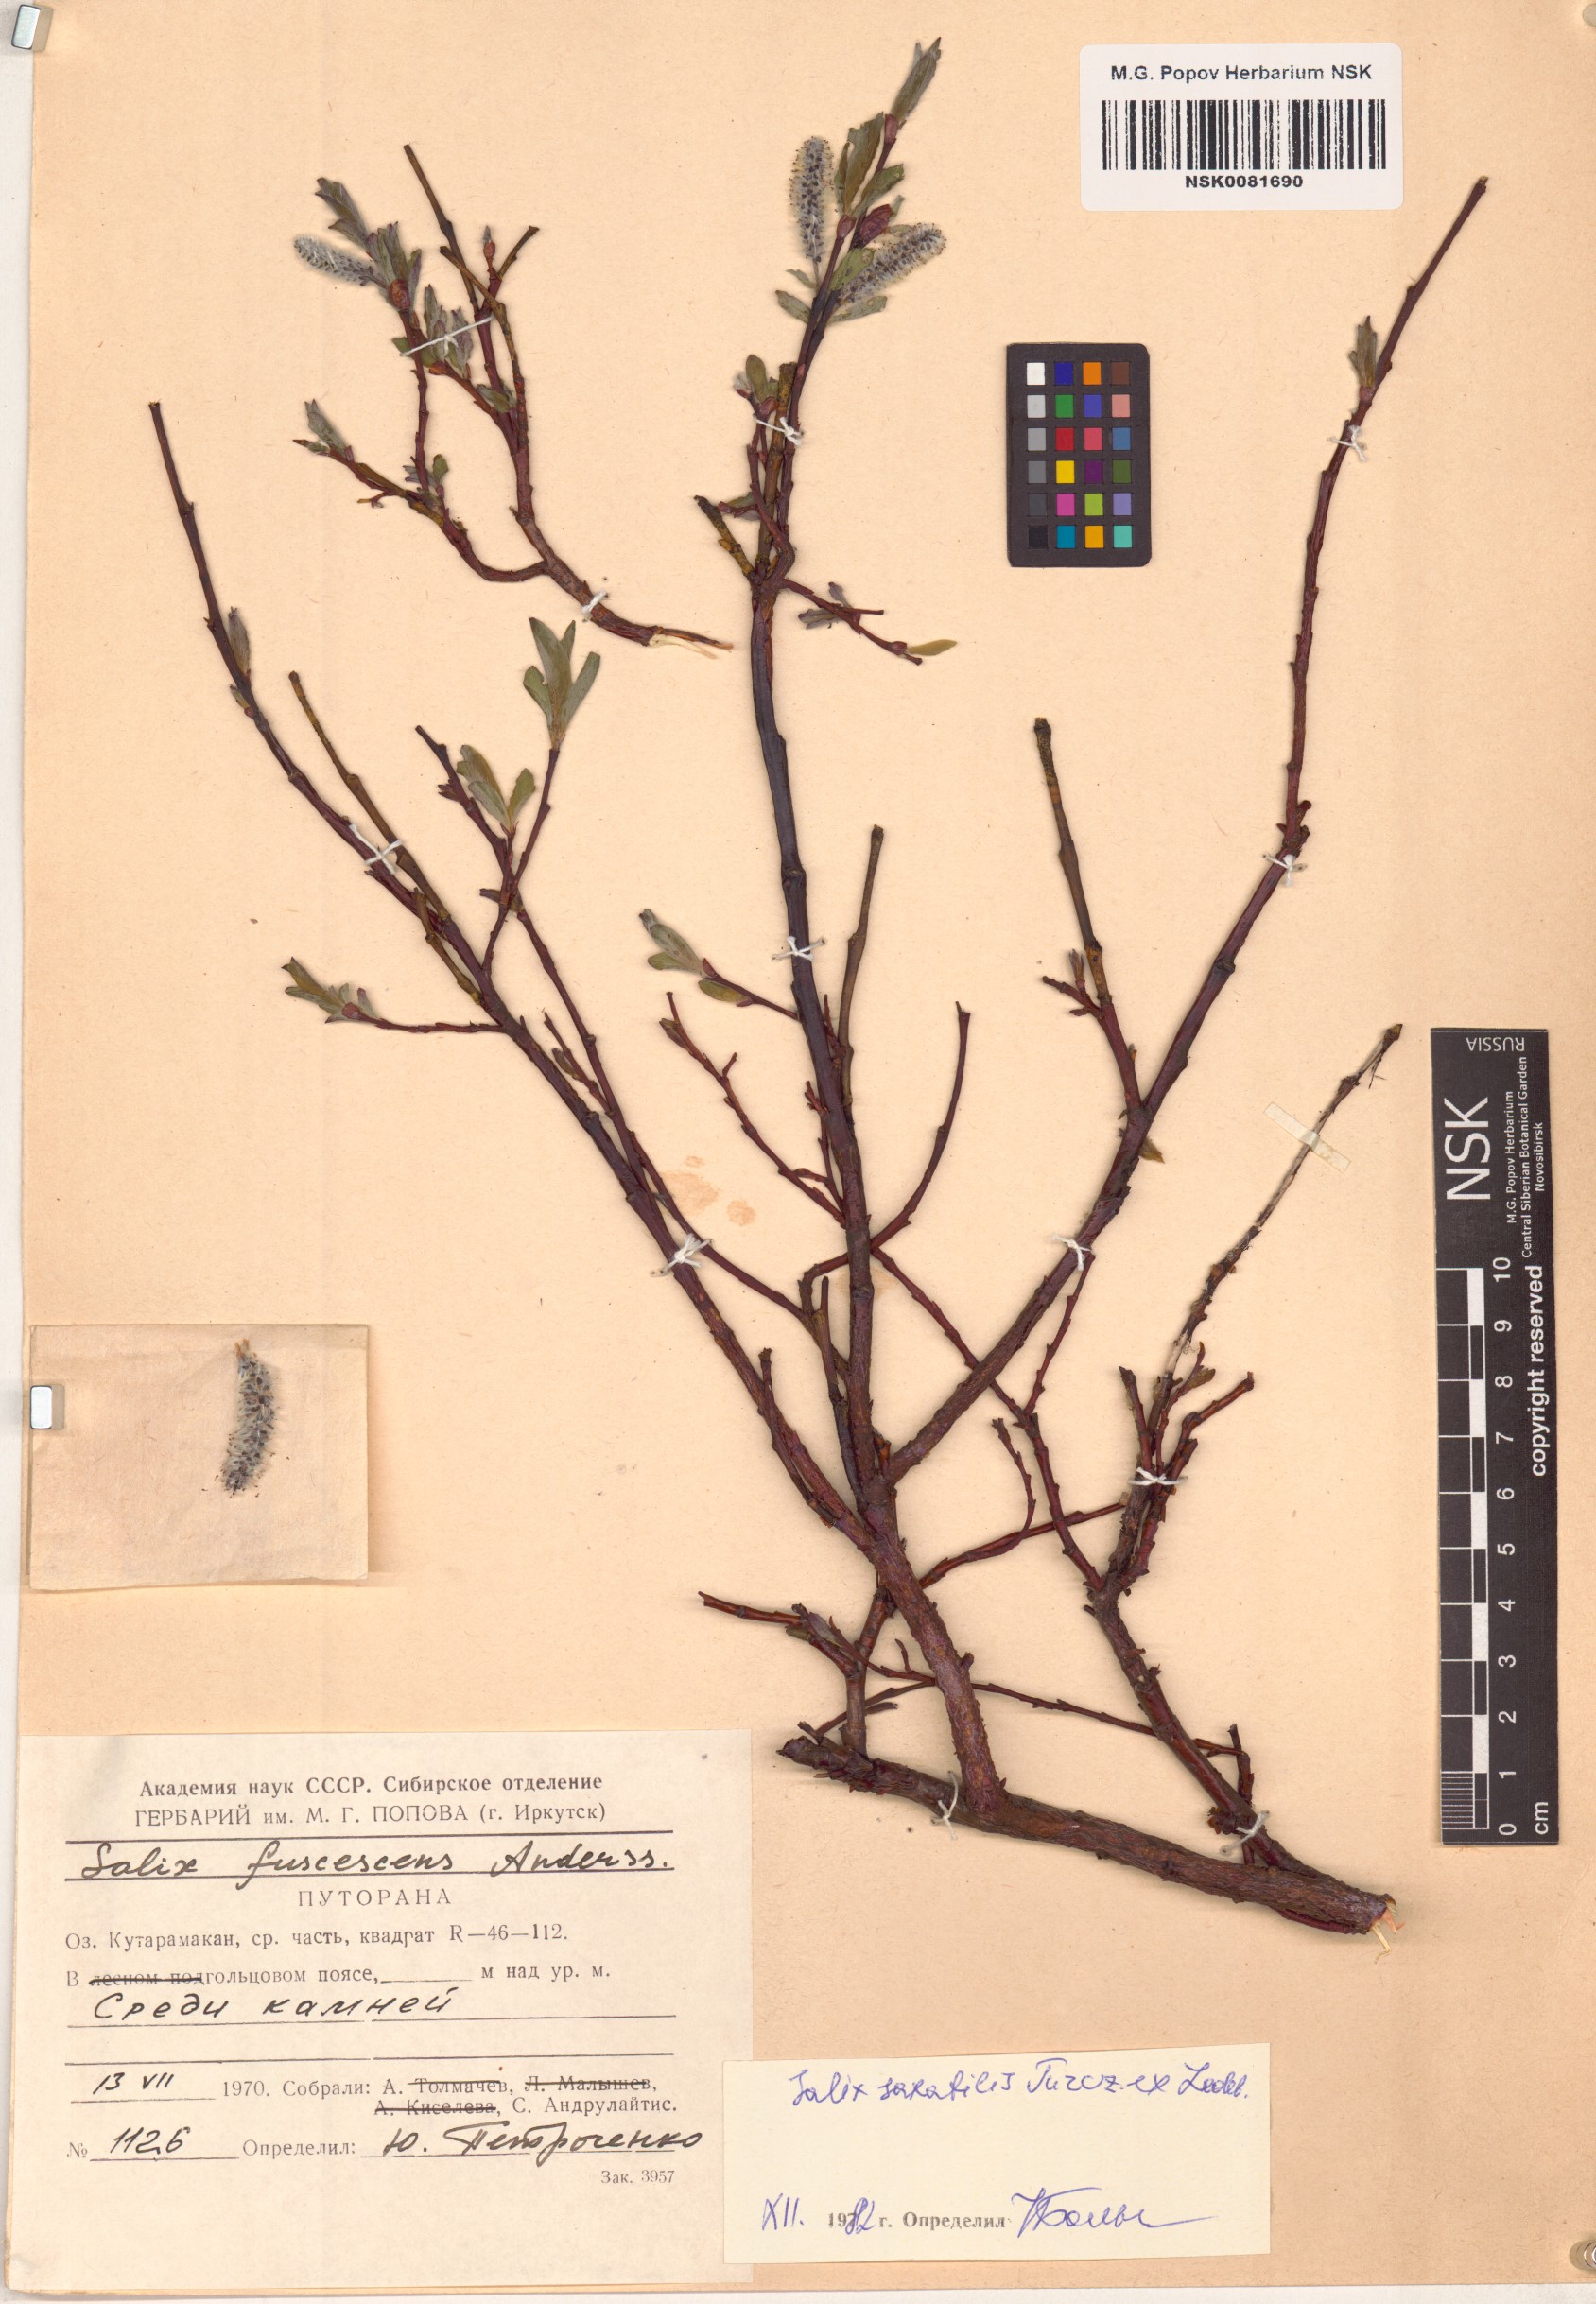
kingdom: Plantae
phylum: Tracheophyta
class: Magnoliopsida
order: Malpighiales
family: Salicaceae
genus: Salix
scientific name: Salix saxatilis
